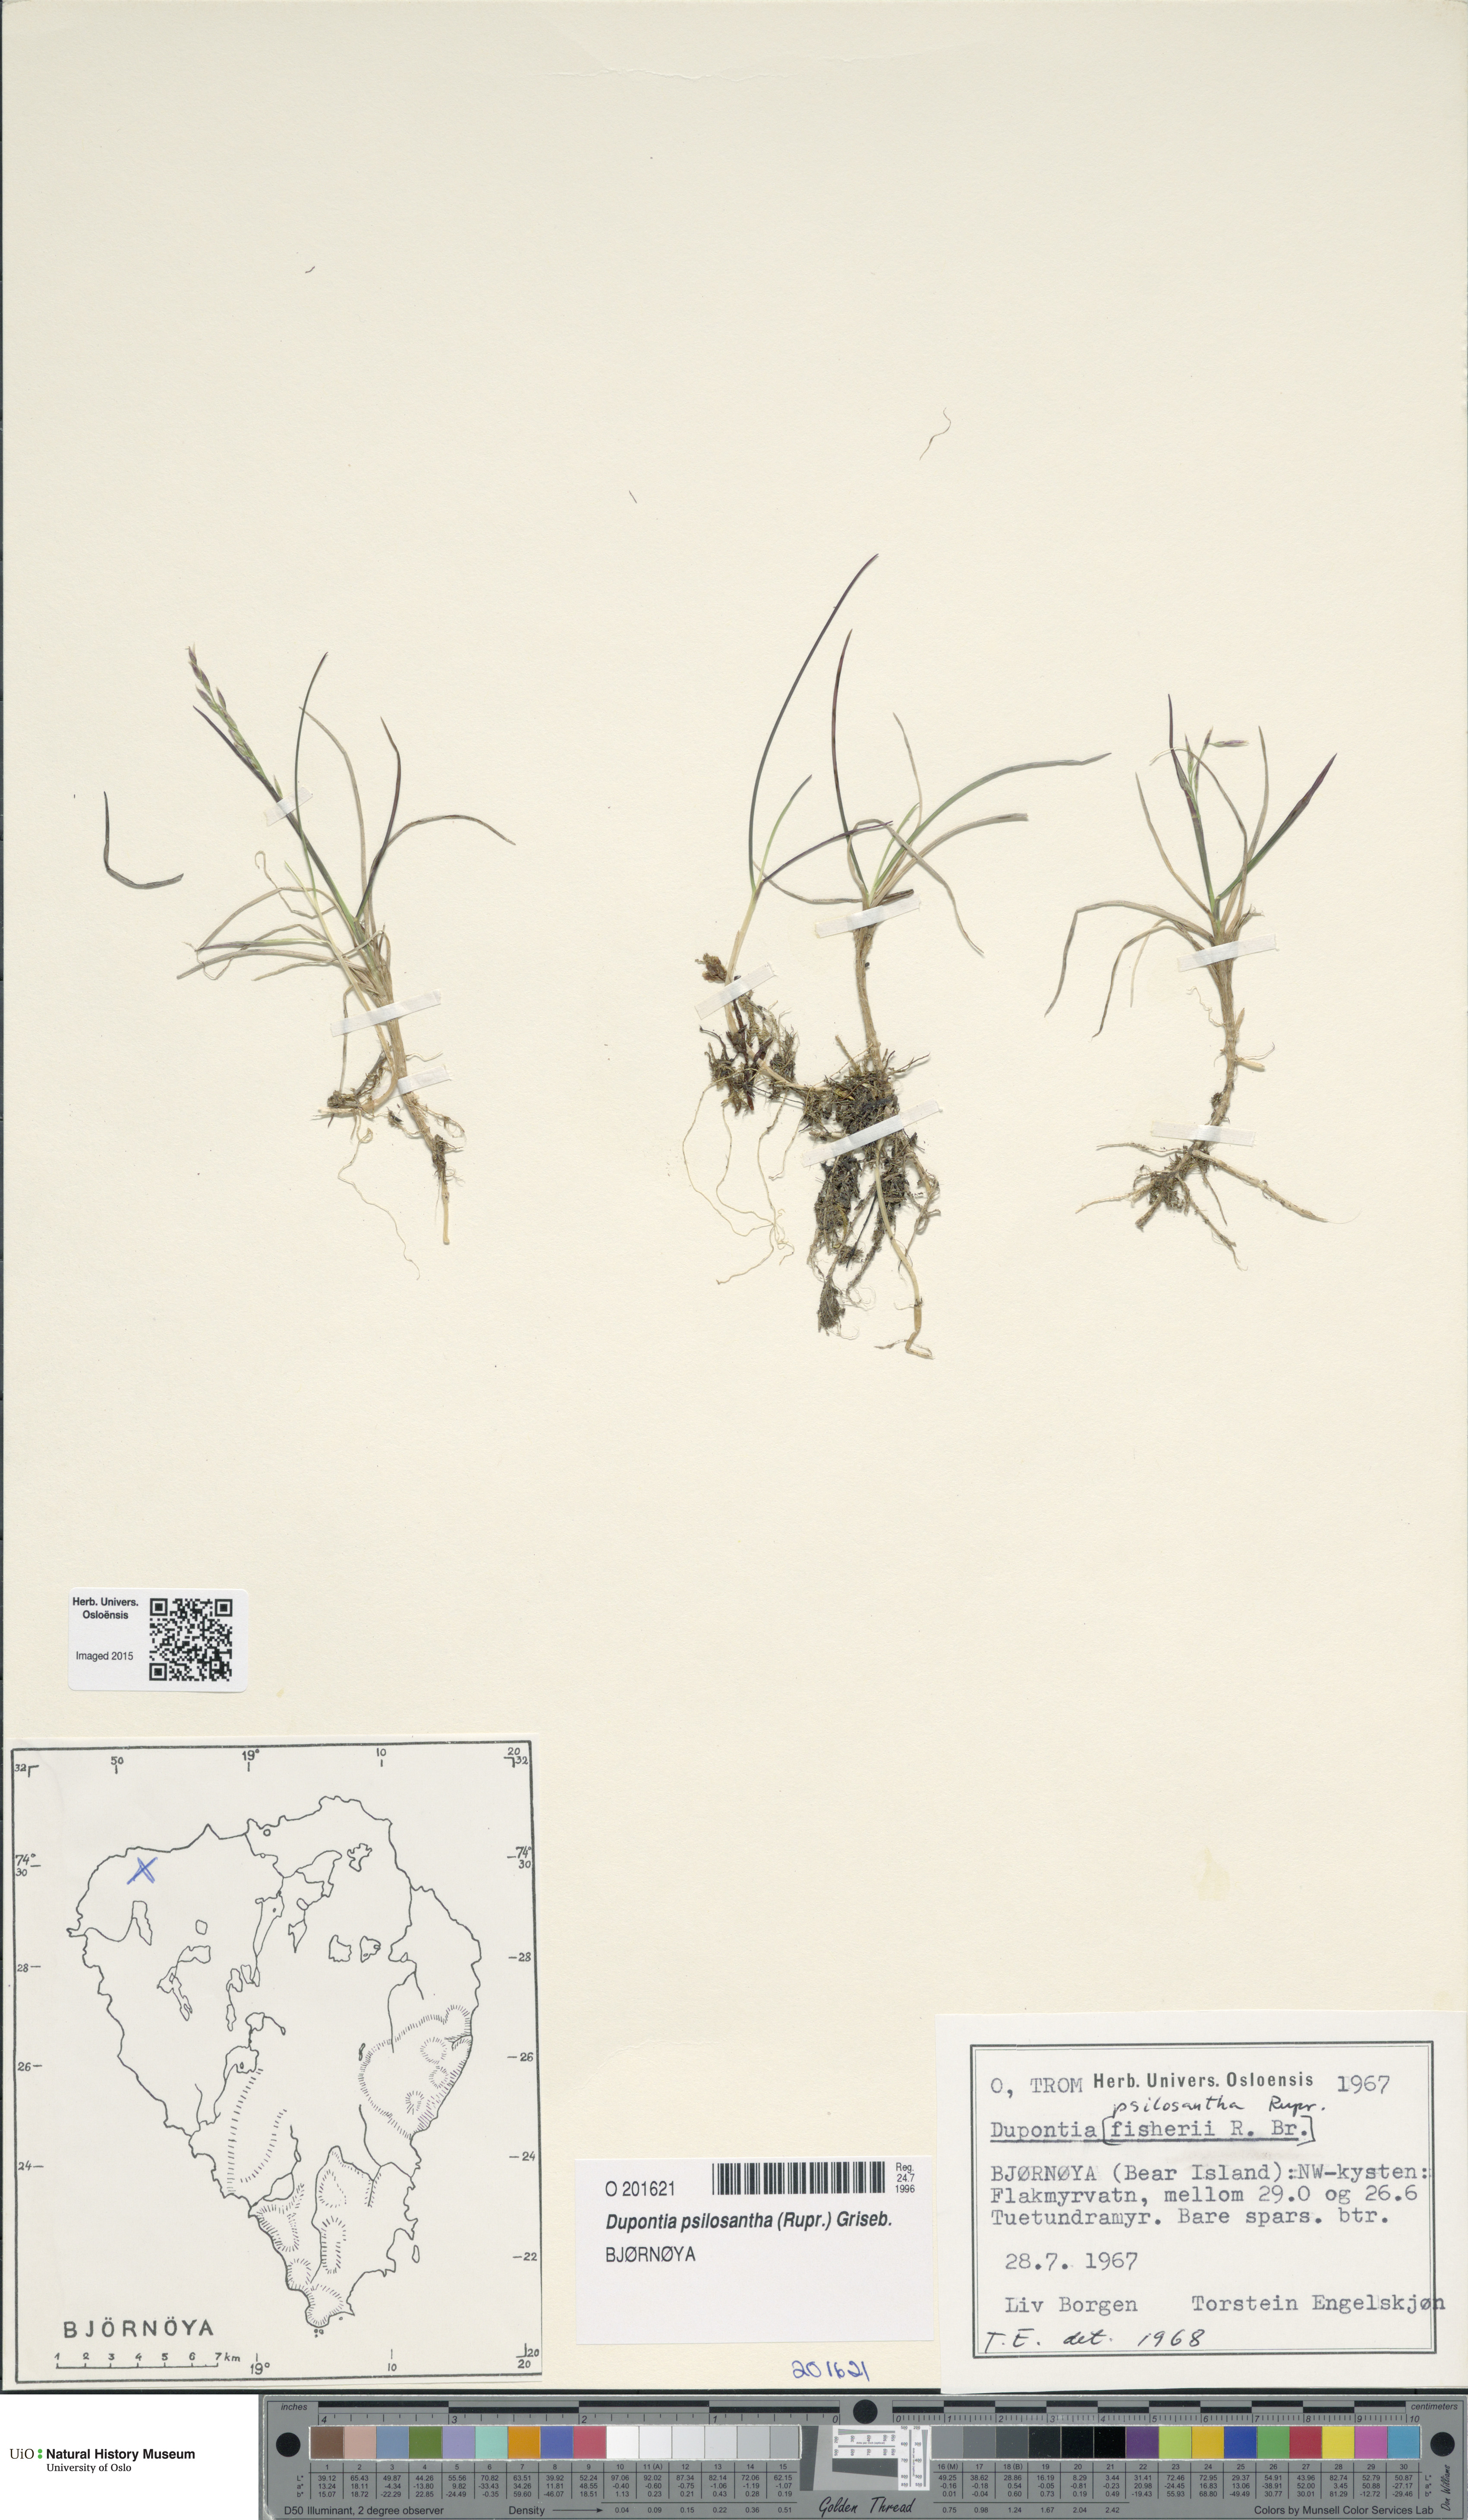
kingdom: Plantae
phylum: Tracheophyta
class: Liliopsida
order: Poales
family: Poaceae
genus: Dupontia
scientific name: Dupontia fisheri
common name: Tundra grass
